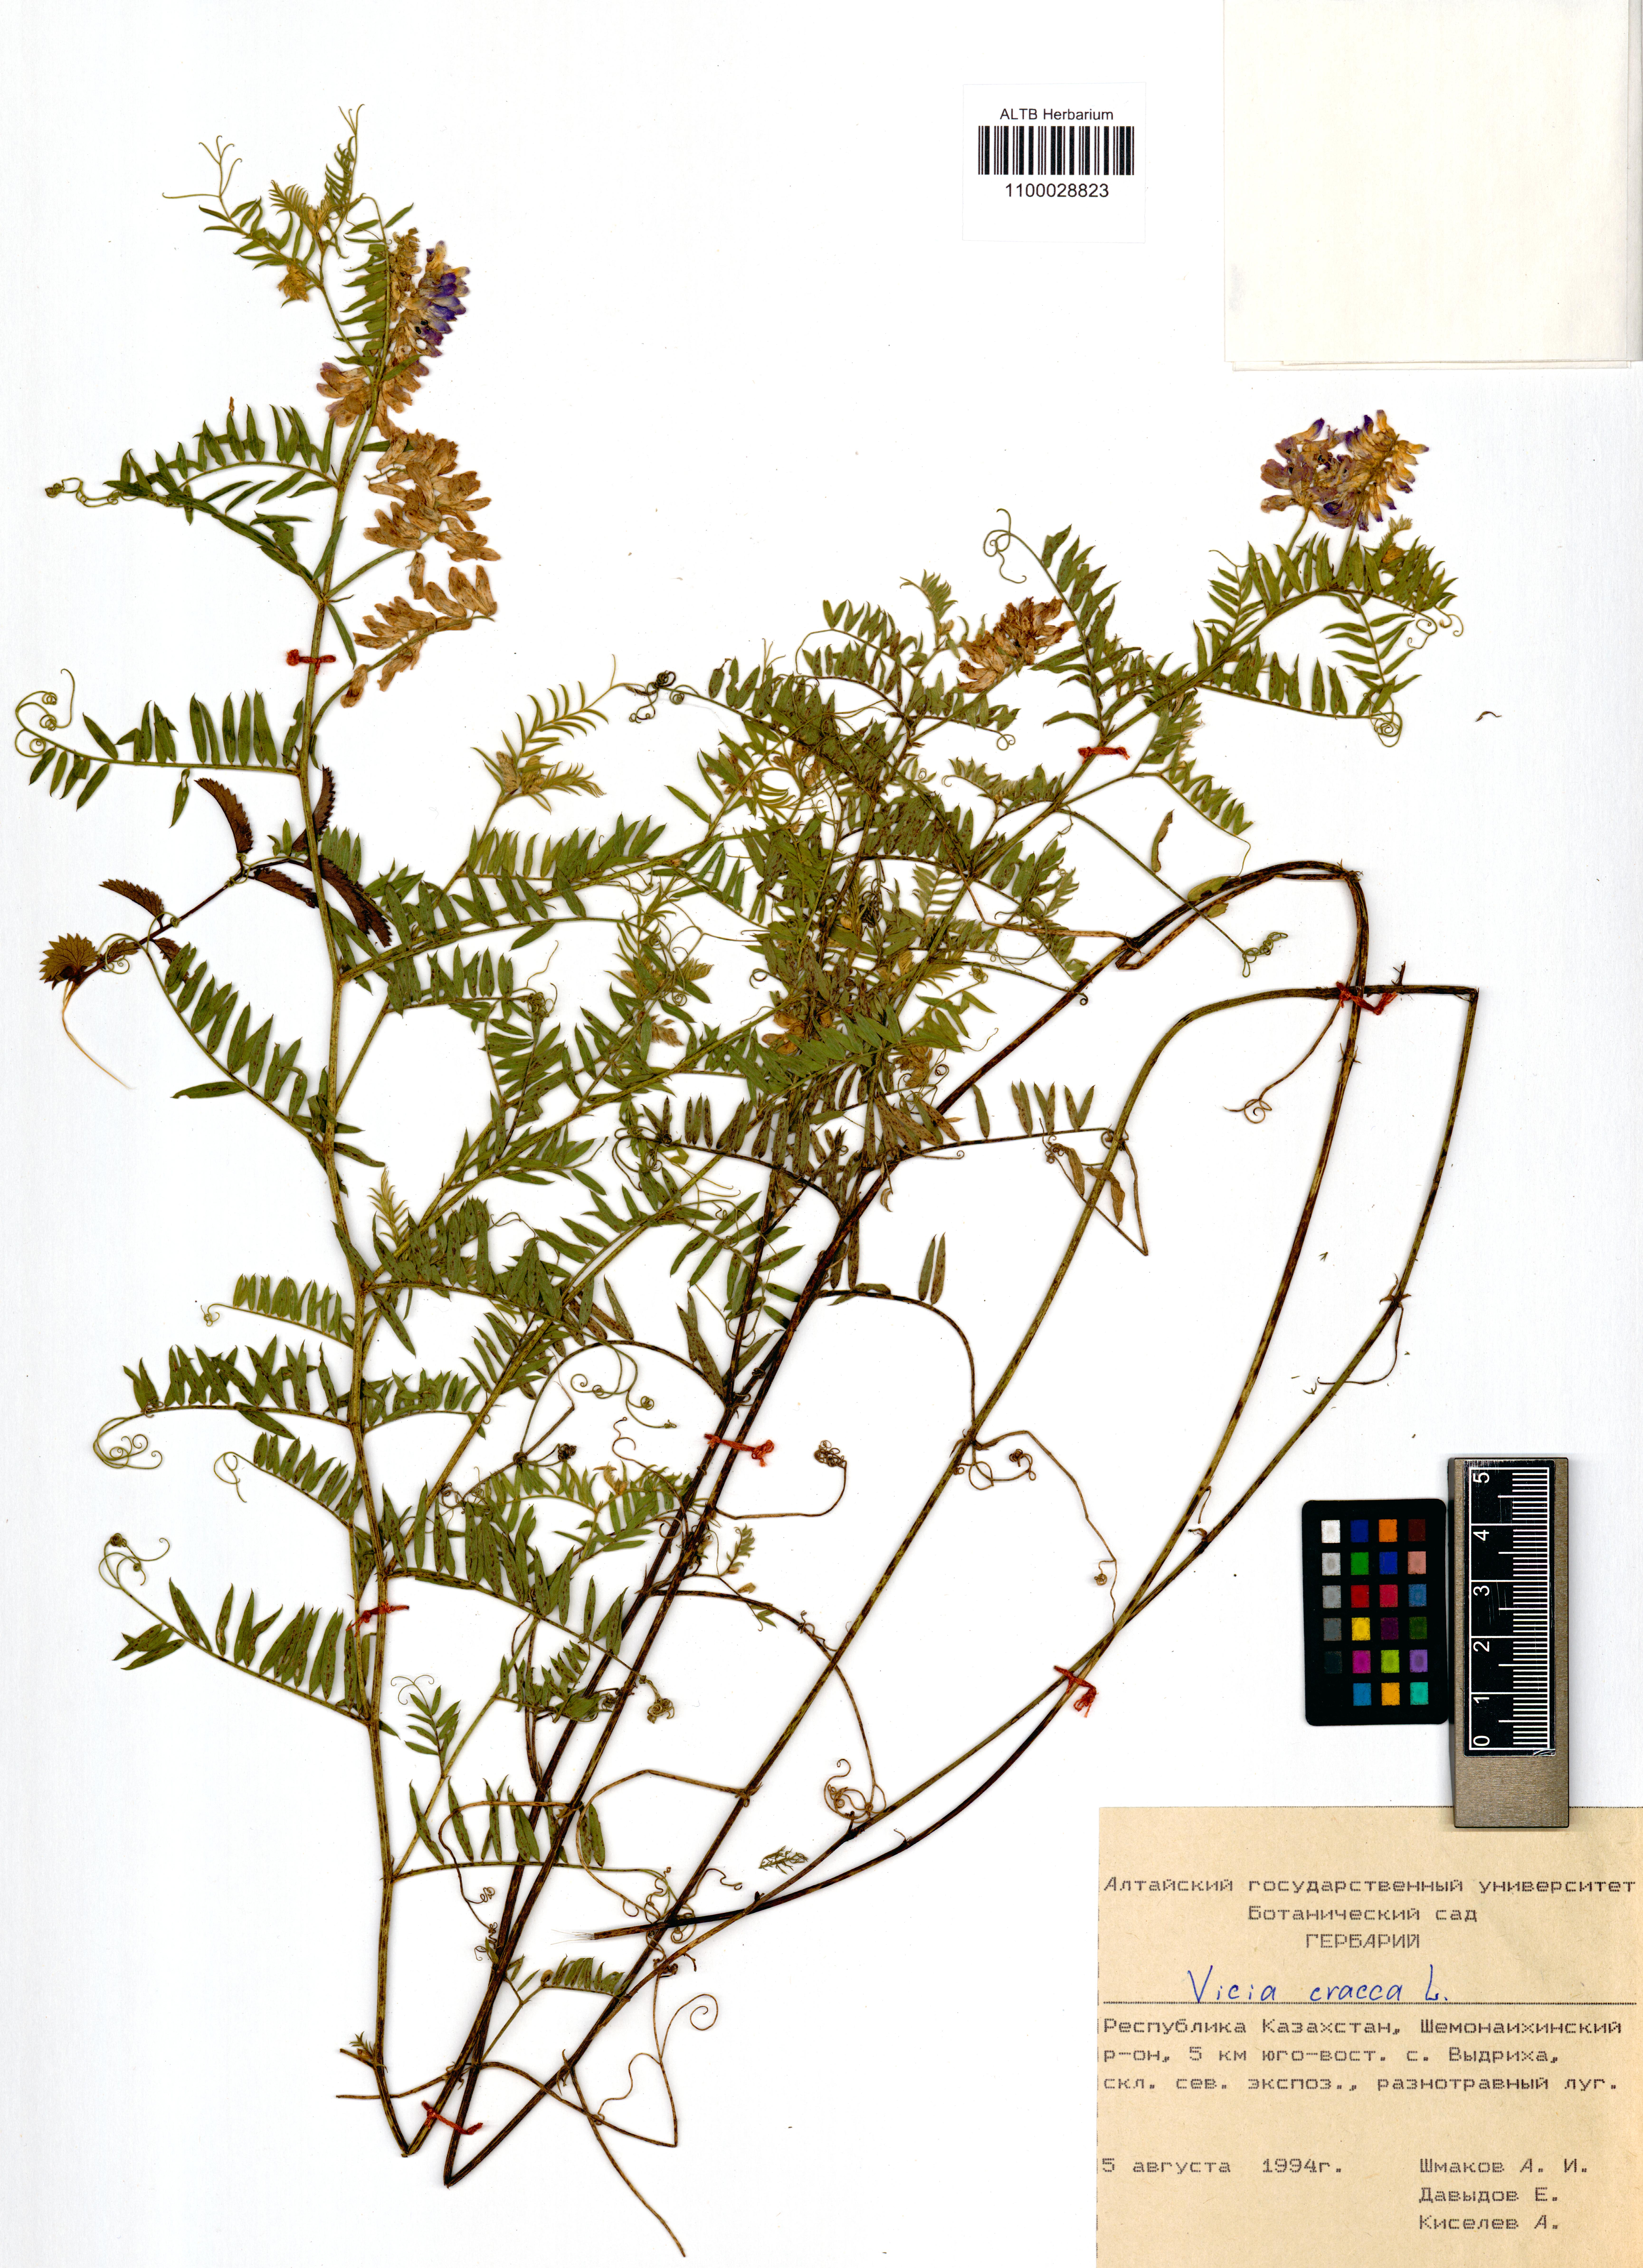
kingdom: Plantae
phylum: Tracheophyta
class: Magnoliopsida
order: Fabales
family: Fabaceae
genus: Vicia
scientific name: Vicia cracca
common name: Bird vetch
